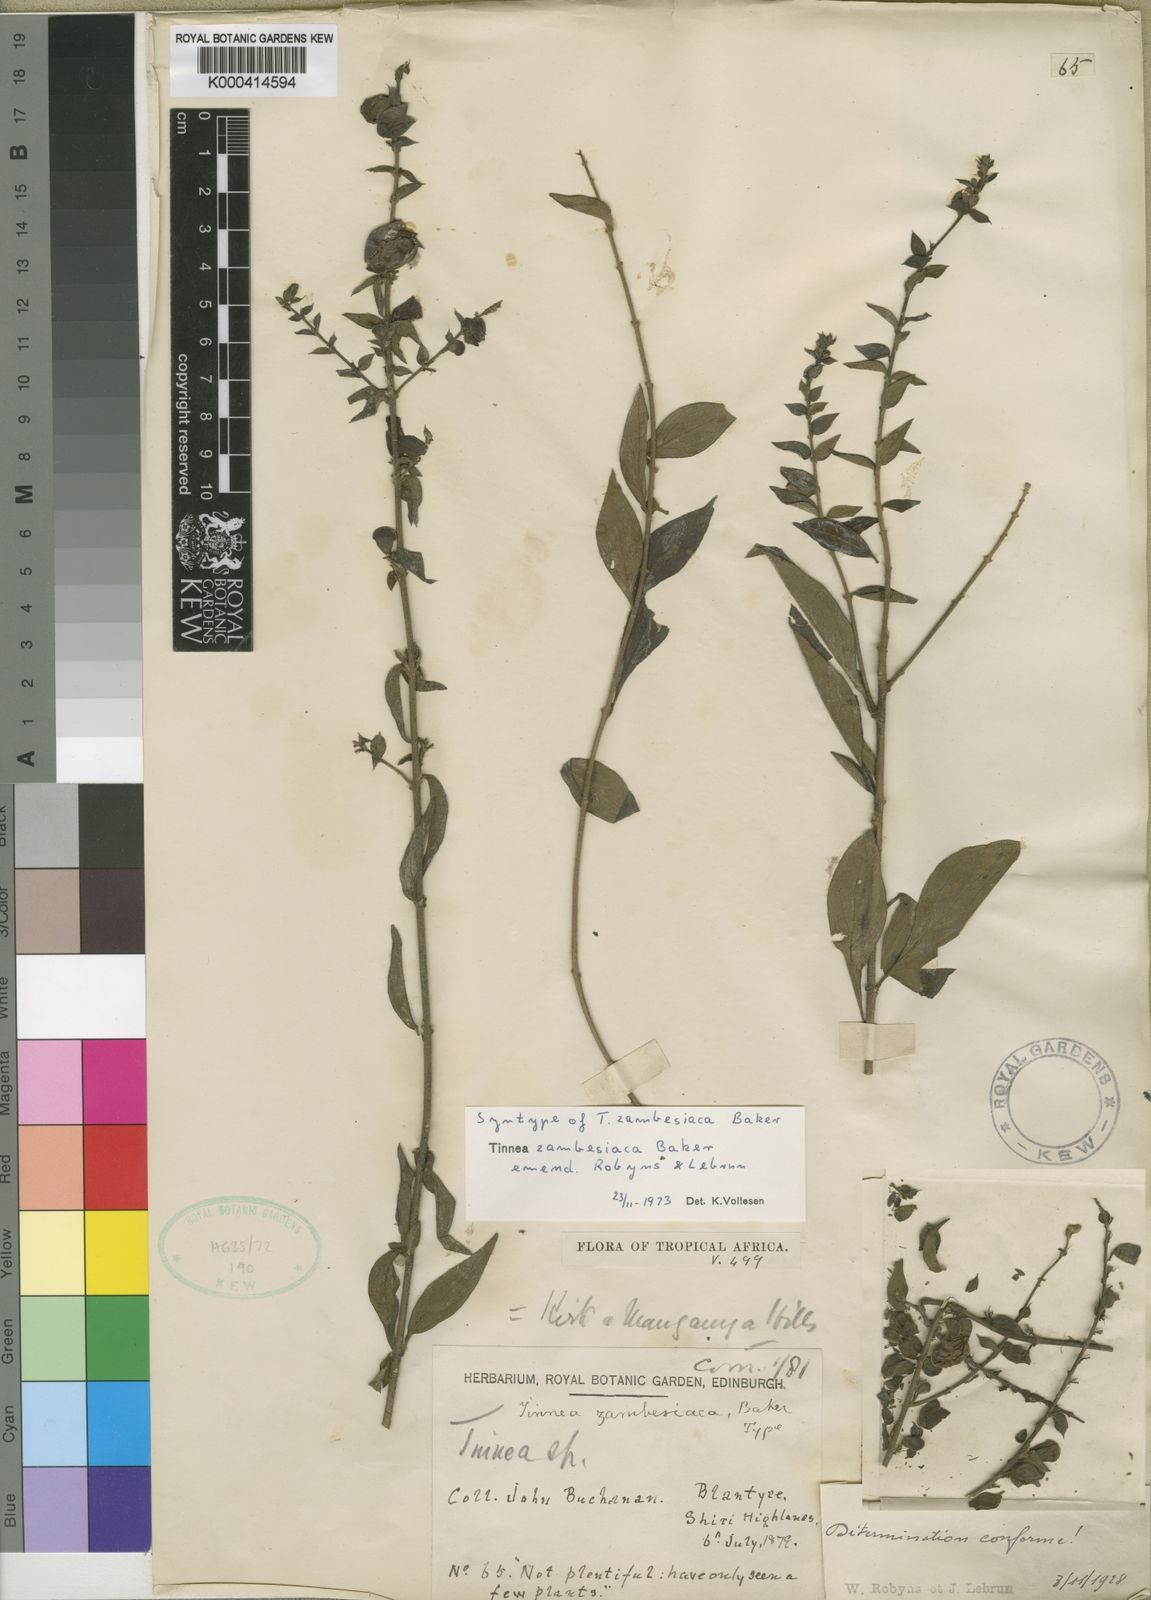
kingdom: Plantae
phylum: Tracheophyta
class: Magnoliopsida
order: Lamiales
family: Lamiaceae
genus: Tinnea
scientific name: Tinnea zambesiaca
